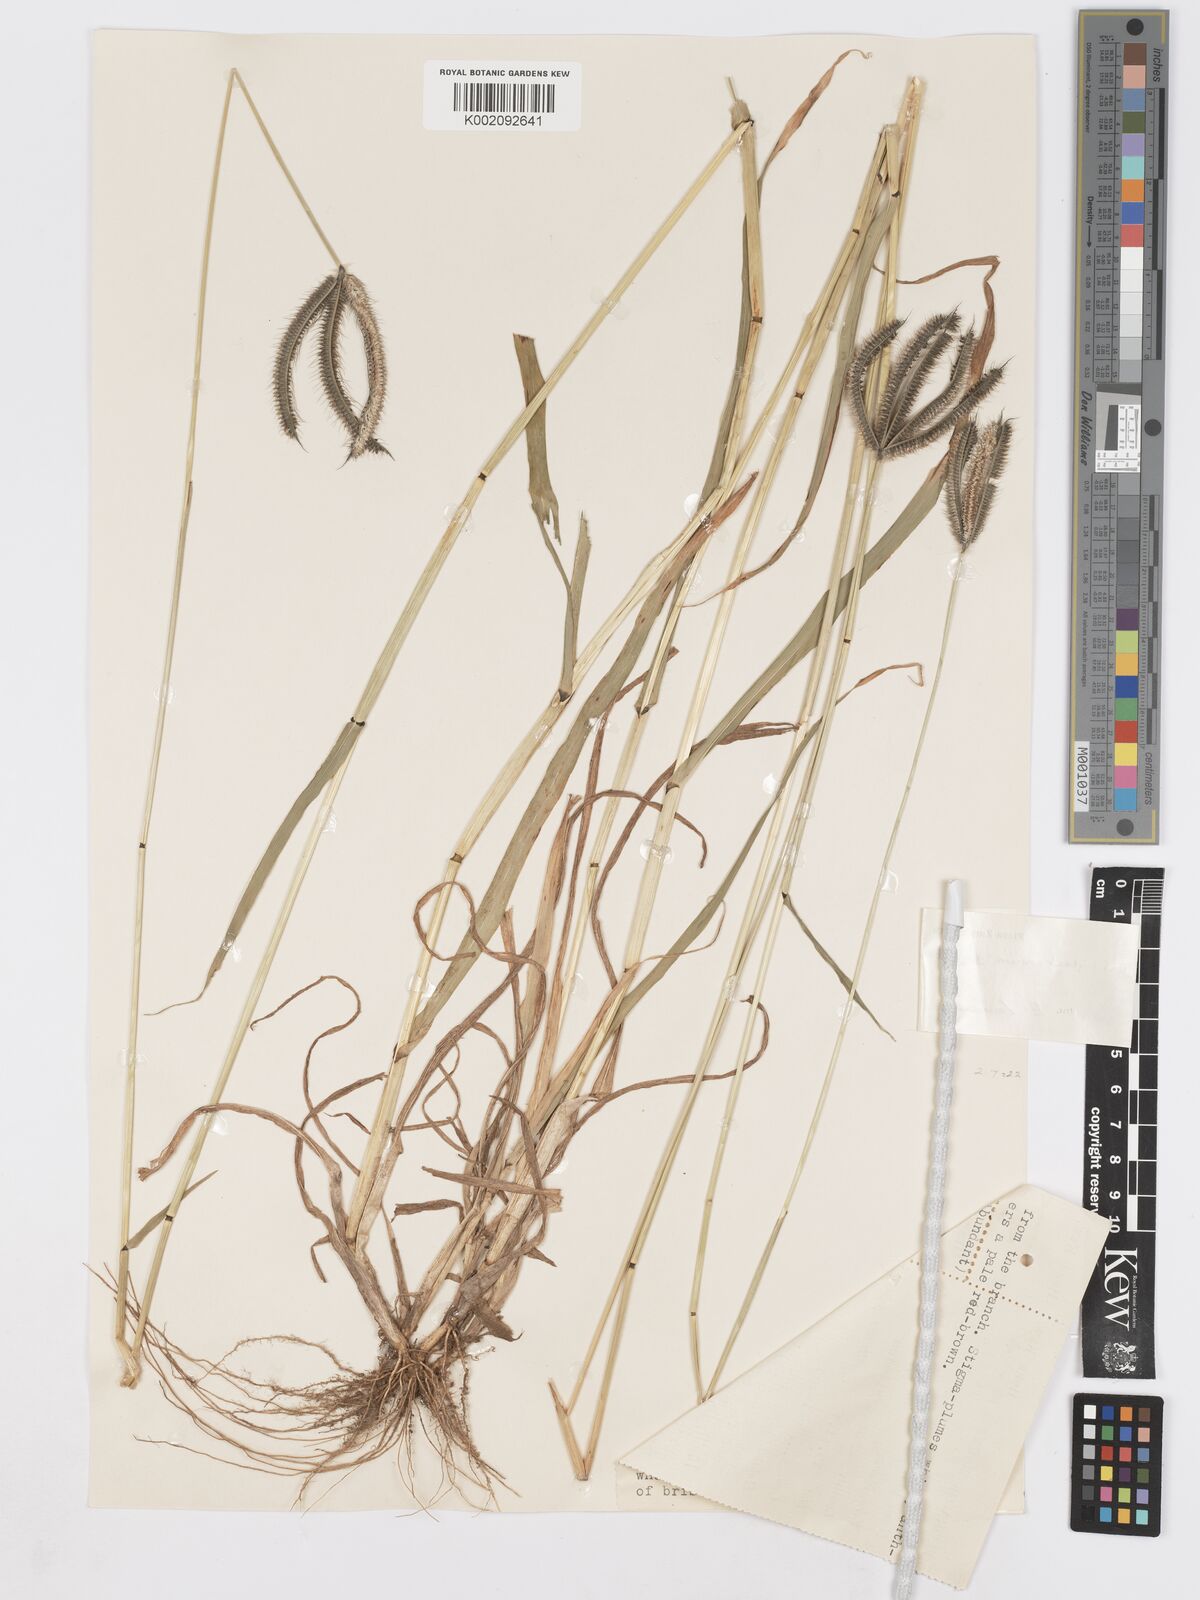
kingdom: Plantae
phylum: Tracheophyta
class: Liliopsida
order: Poales
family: Poaceae
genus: Dactyloctenium
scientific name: Dactyloctenium giganteum
